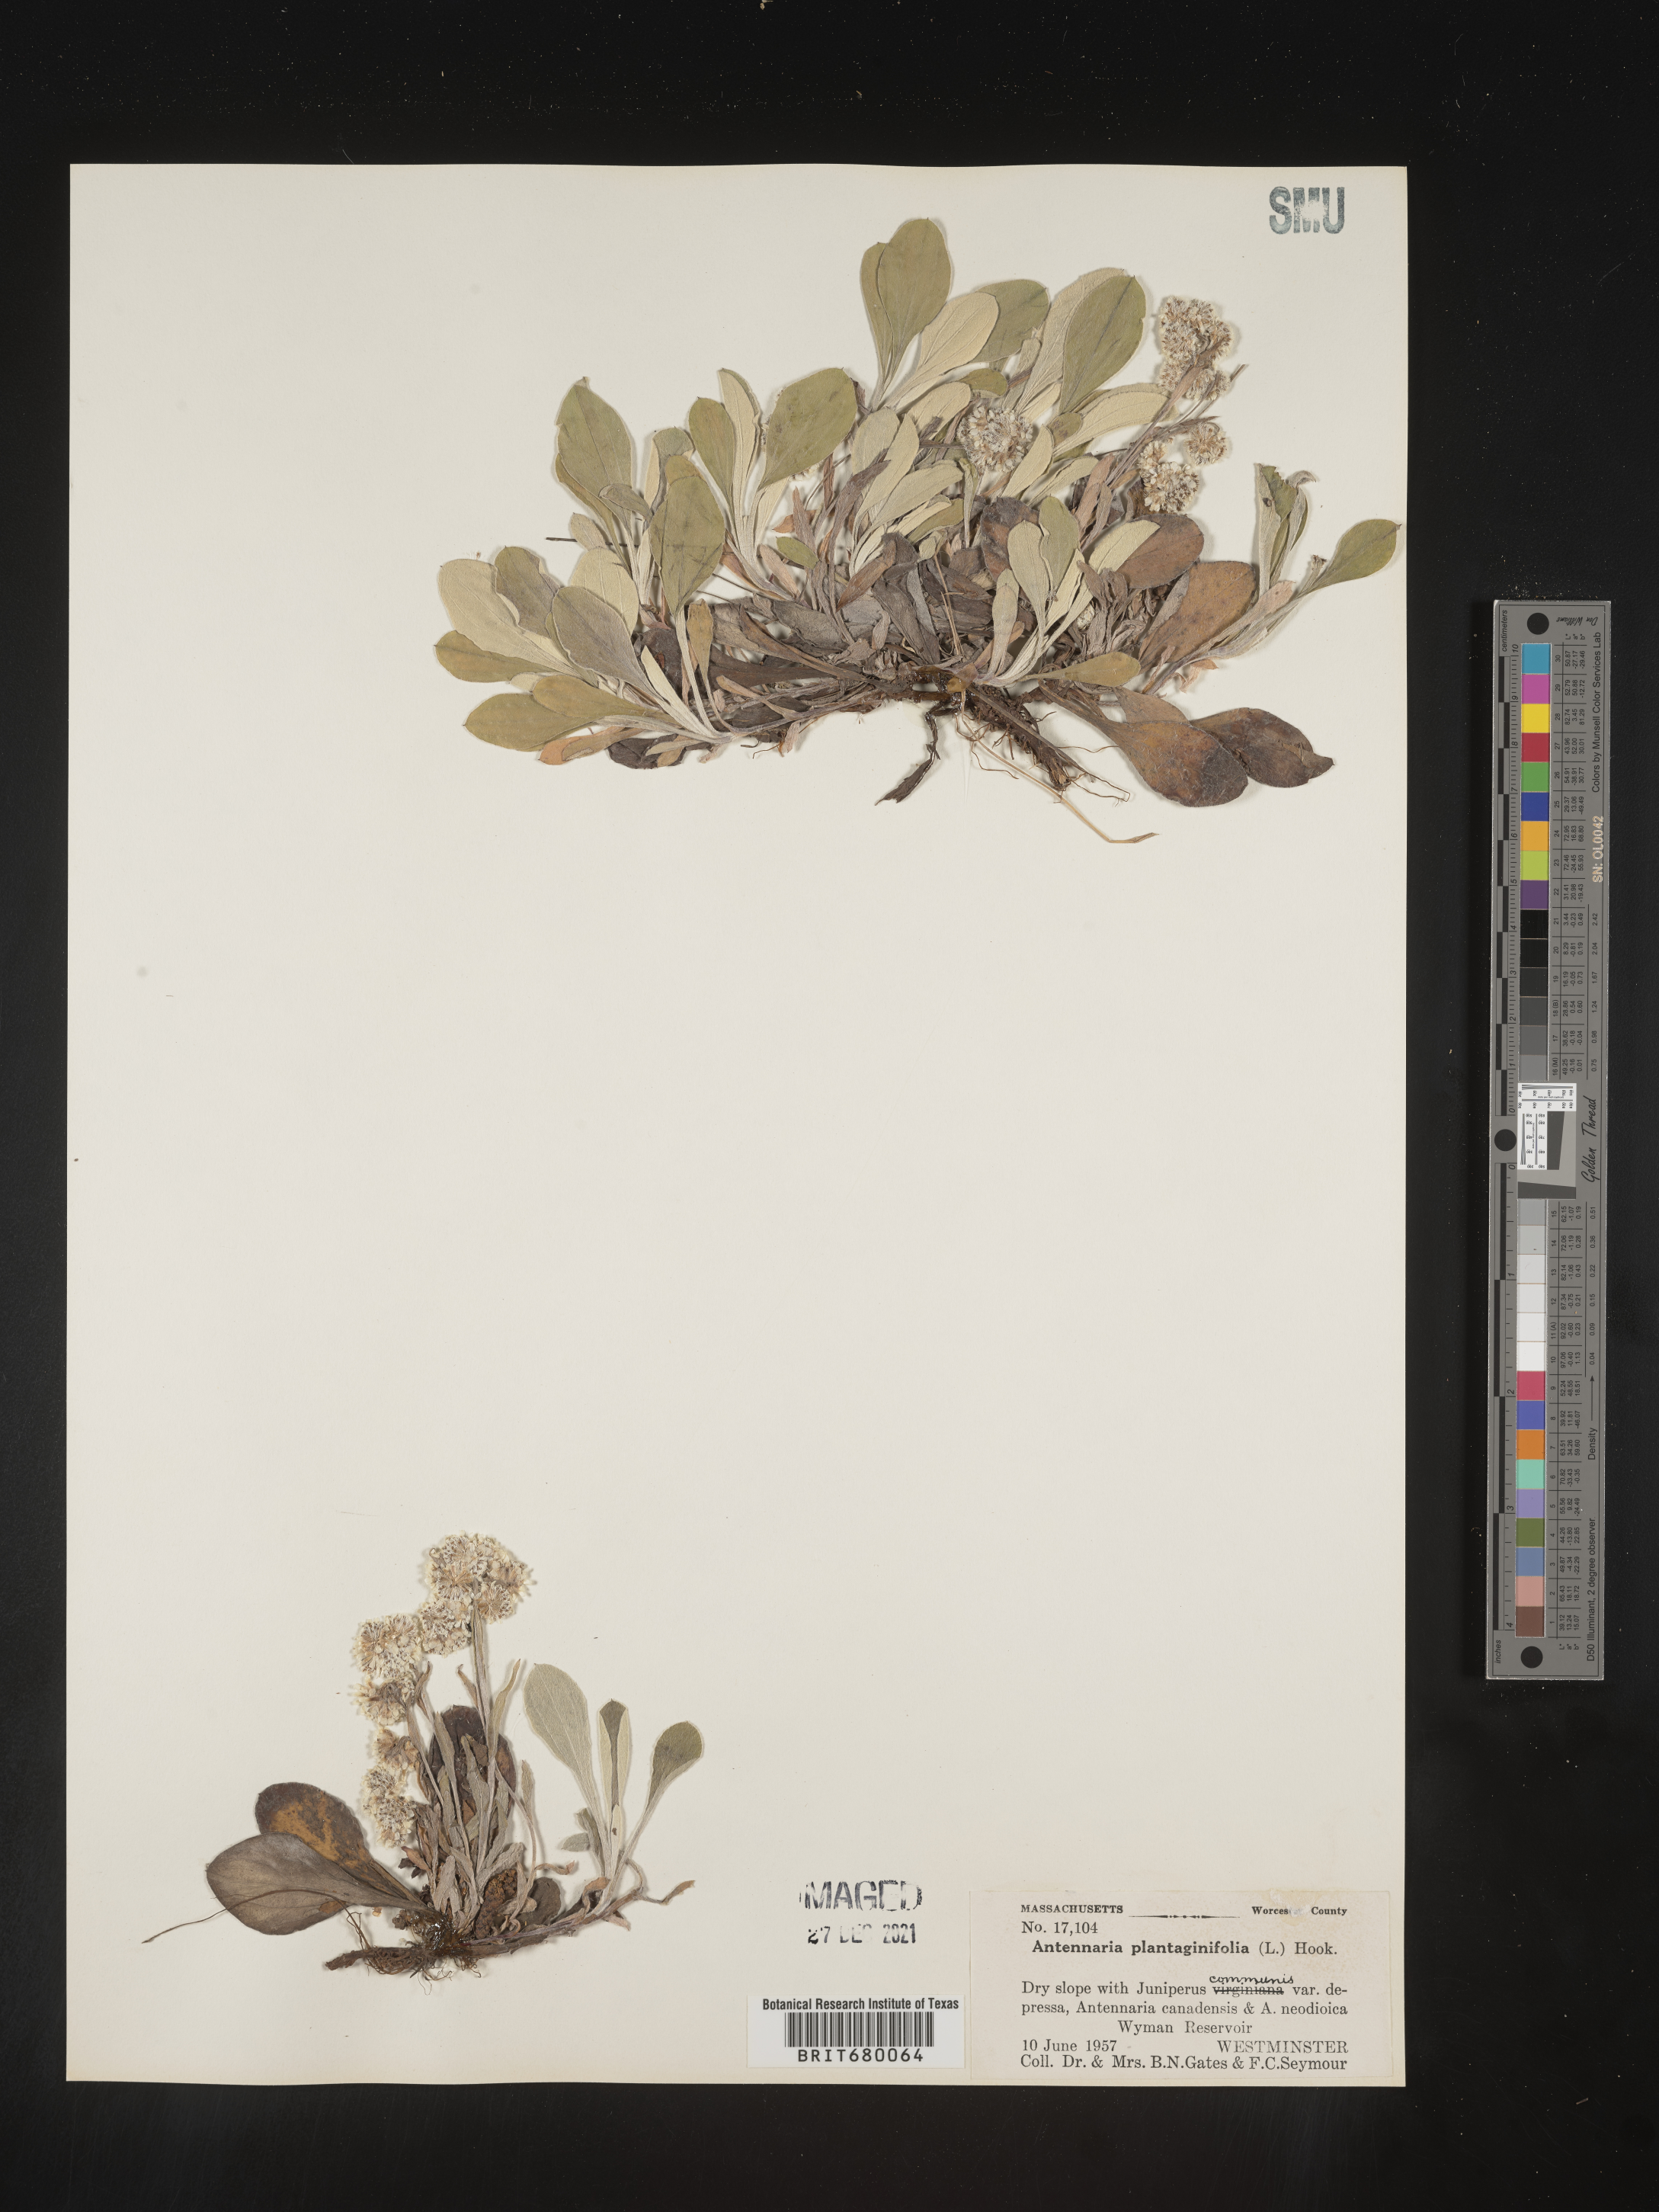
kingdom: Plantae
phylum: Tracheophyta
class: Magnoliopsida
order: Asterales
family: Asteraceae
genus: Antennaria
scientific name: Antennaria plantaginifolia
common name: Plantain-leaved pussytoes
